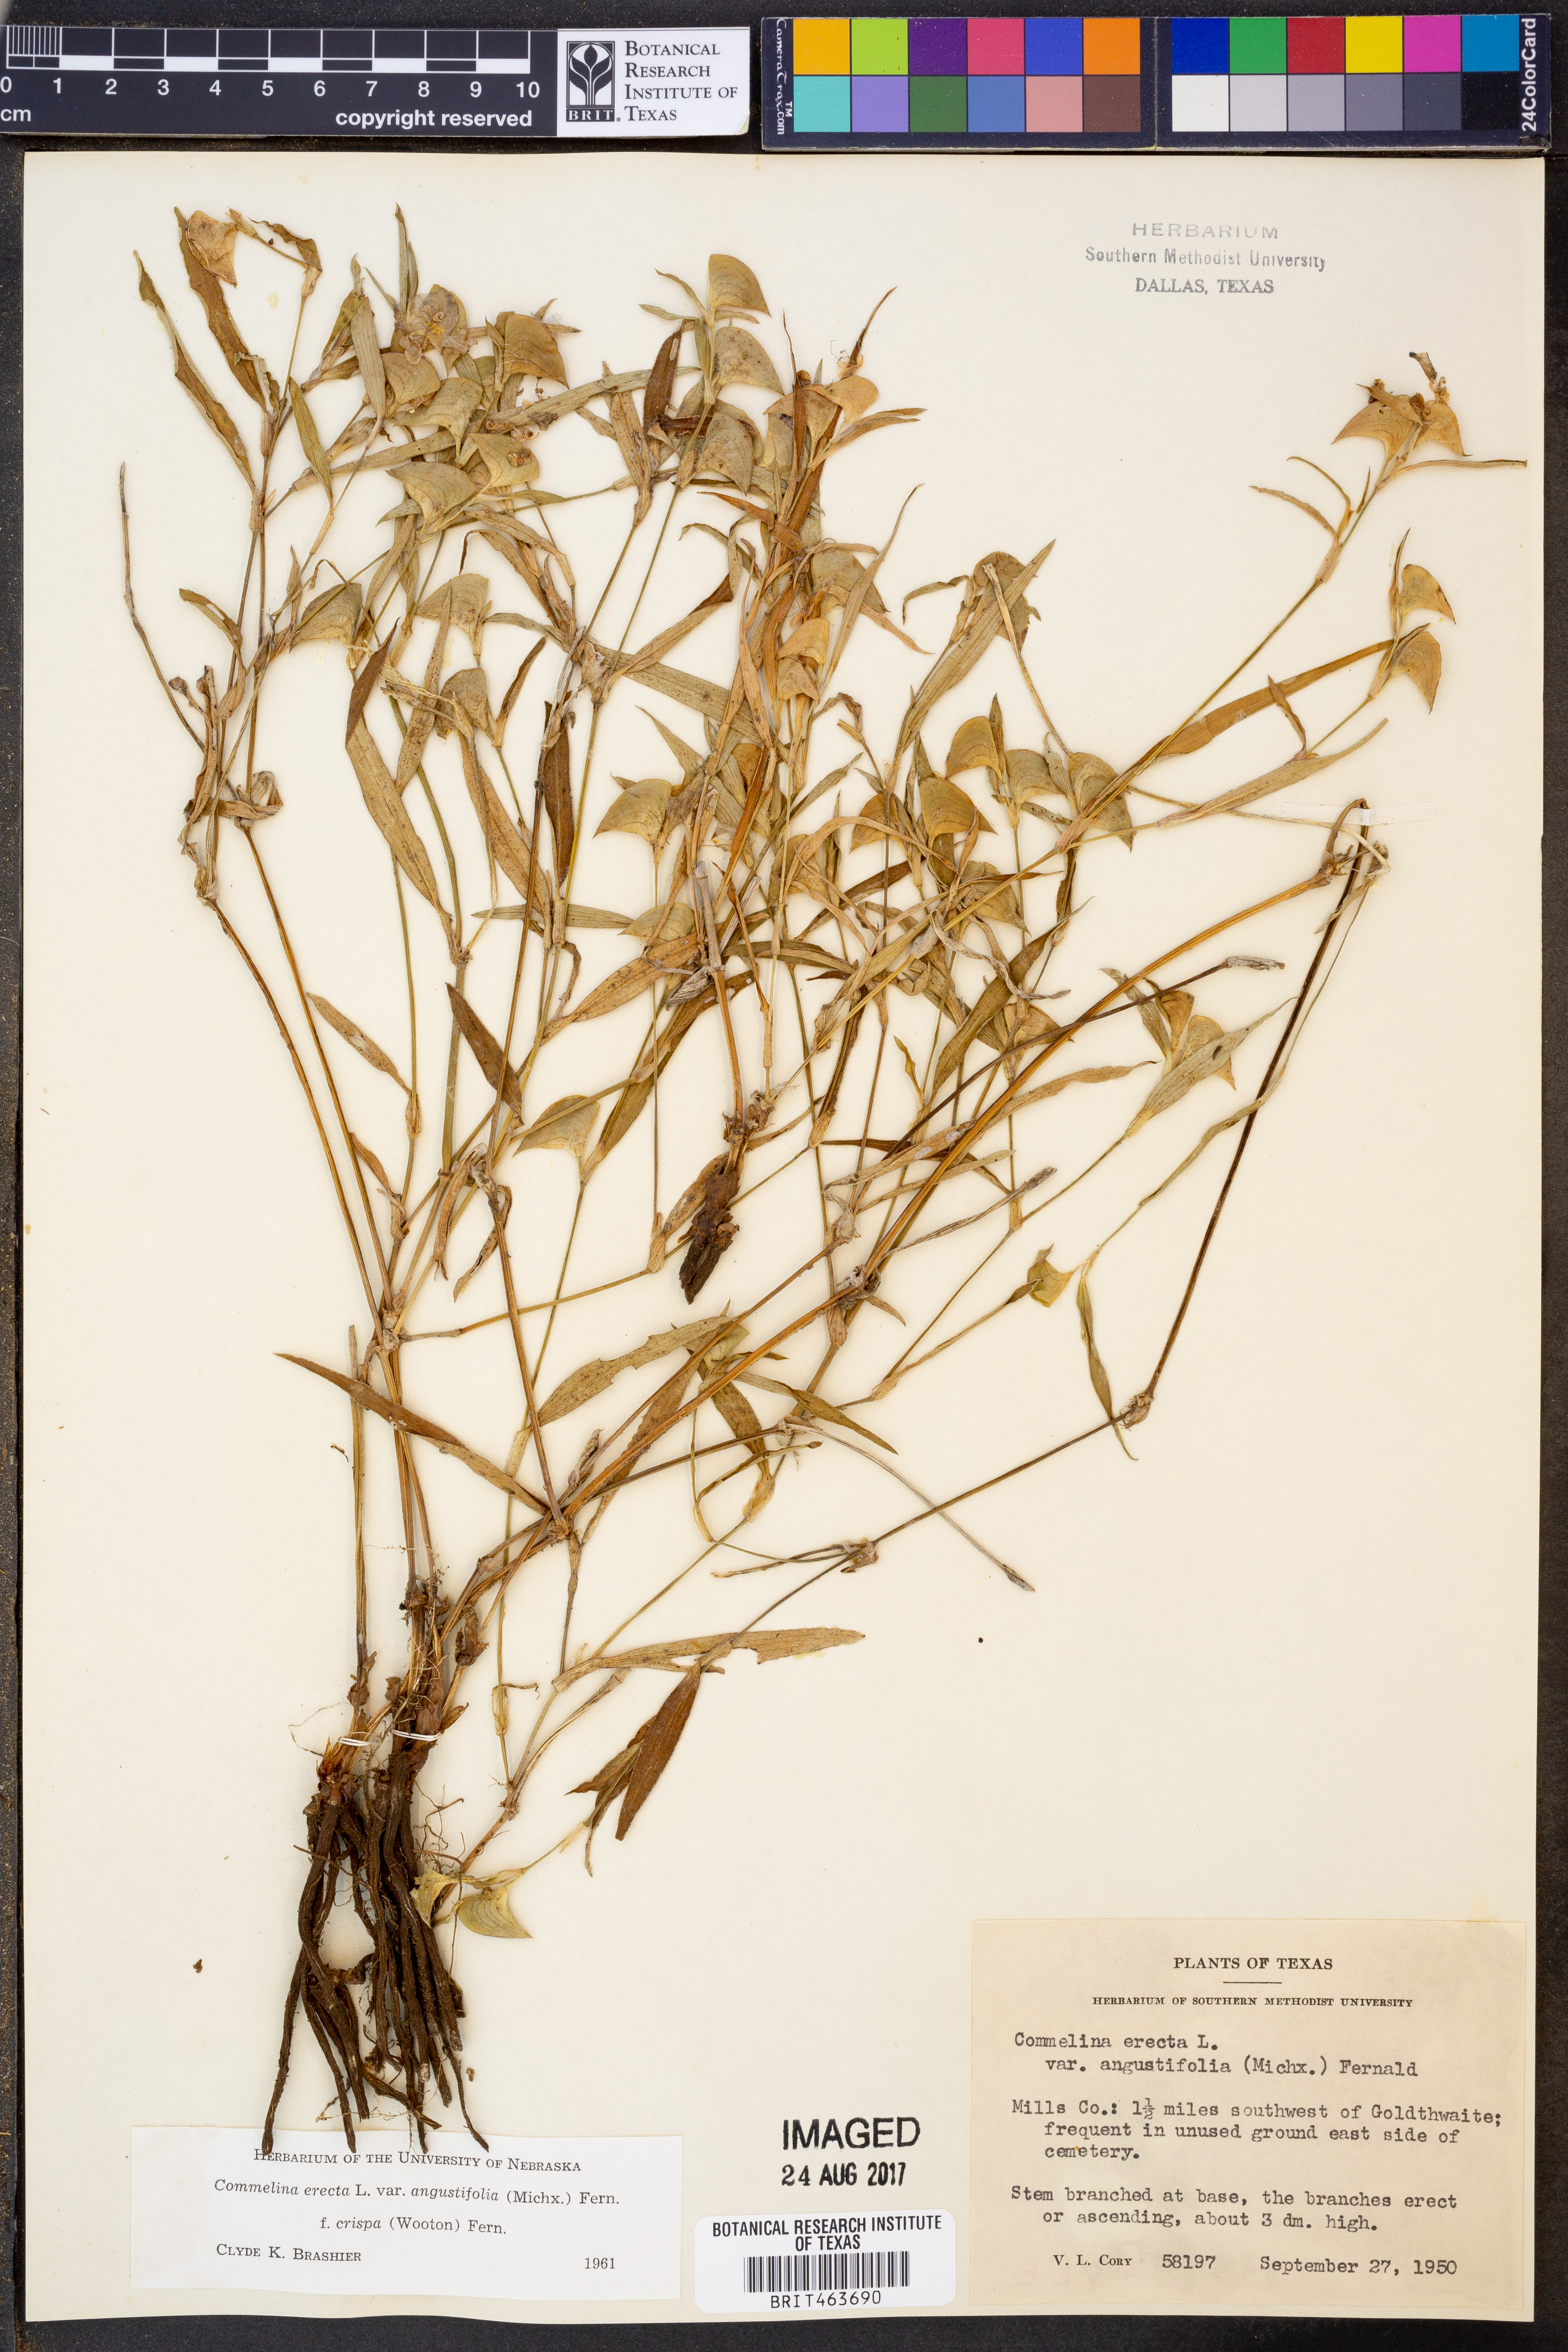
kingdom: Plantae
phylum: Tracheophyta
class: Liliopsida
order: Commelinales
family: Commelinaceae
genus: Commelina
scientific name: Commelina erecta
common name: Blousel blommetjie
